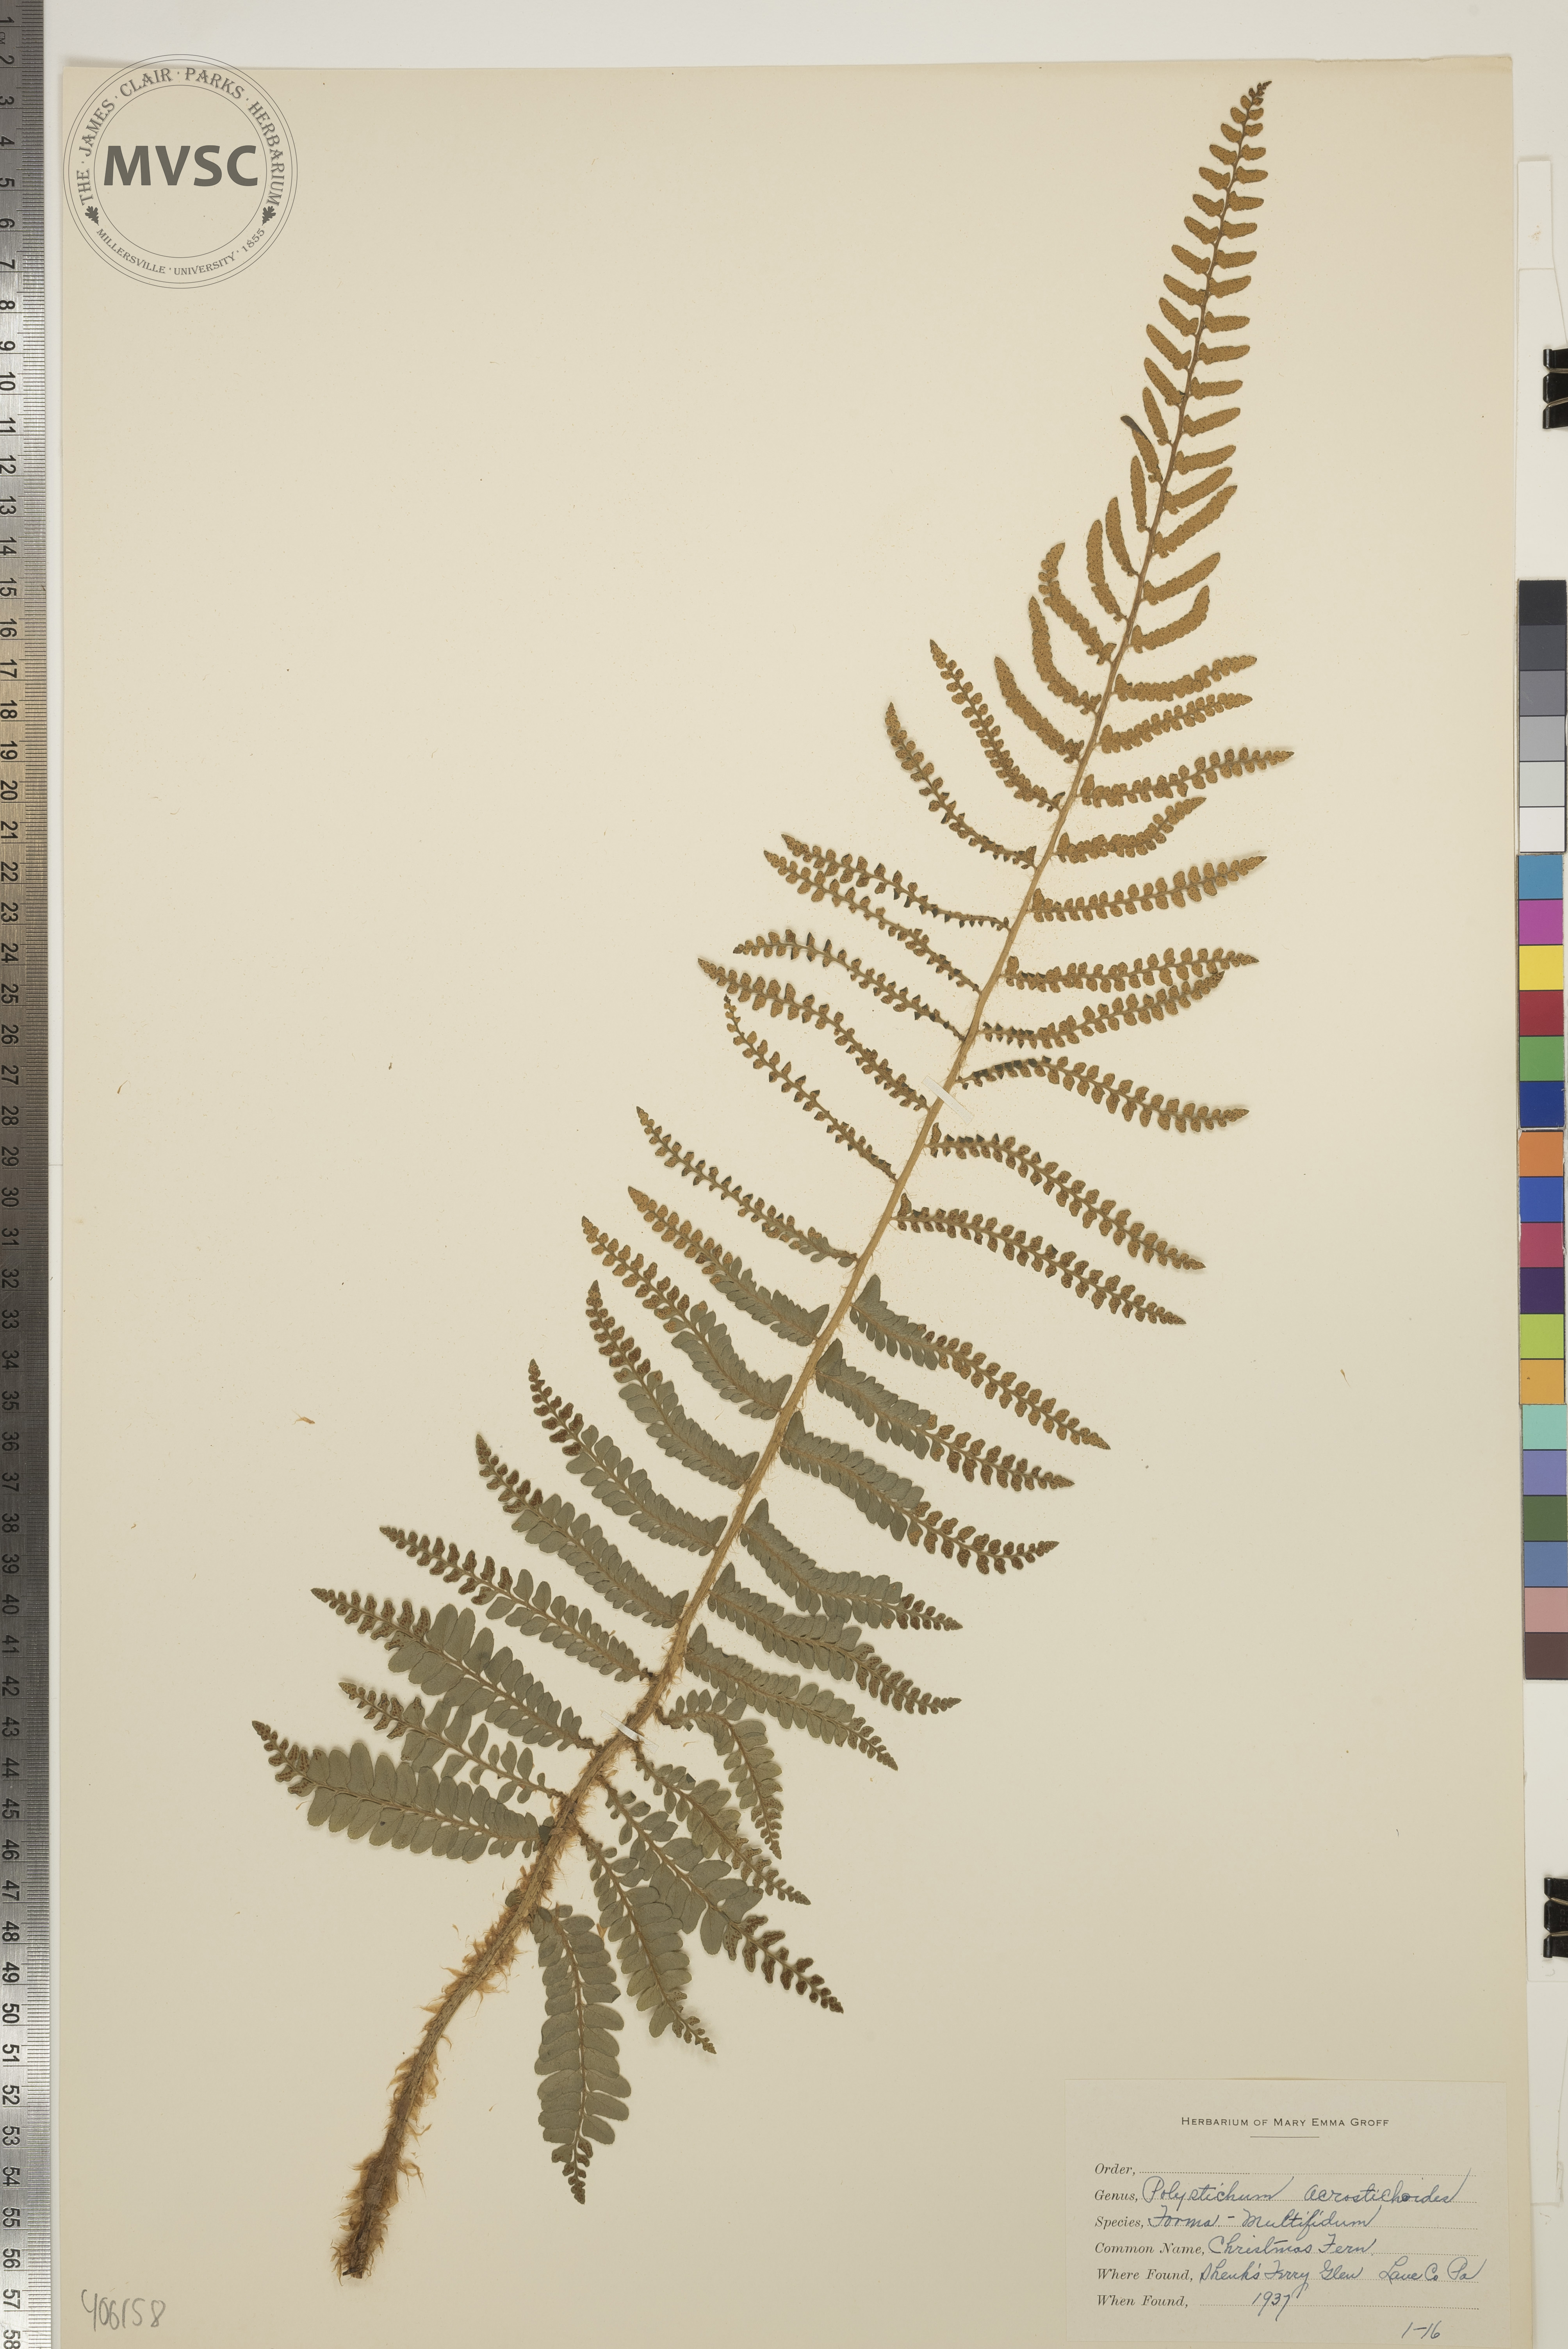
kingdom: Plantae
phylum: Tracheophyta
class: Polypodiopsida
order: Polypodiales
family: Dryopteridaceae
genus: Polystichum
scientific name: Polystichum acrostichoides
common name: Christmas Fern
